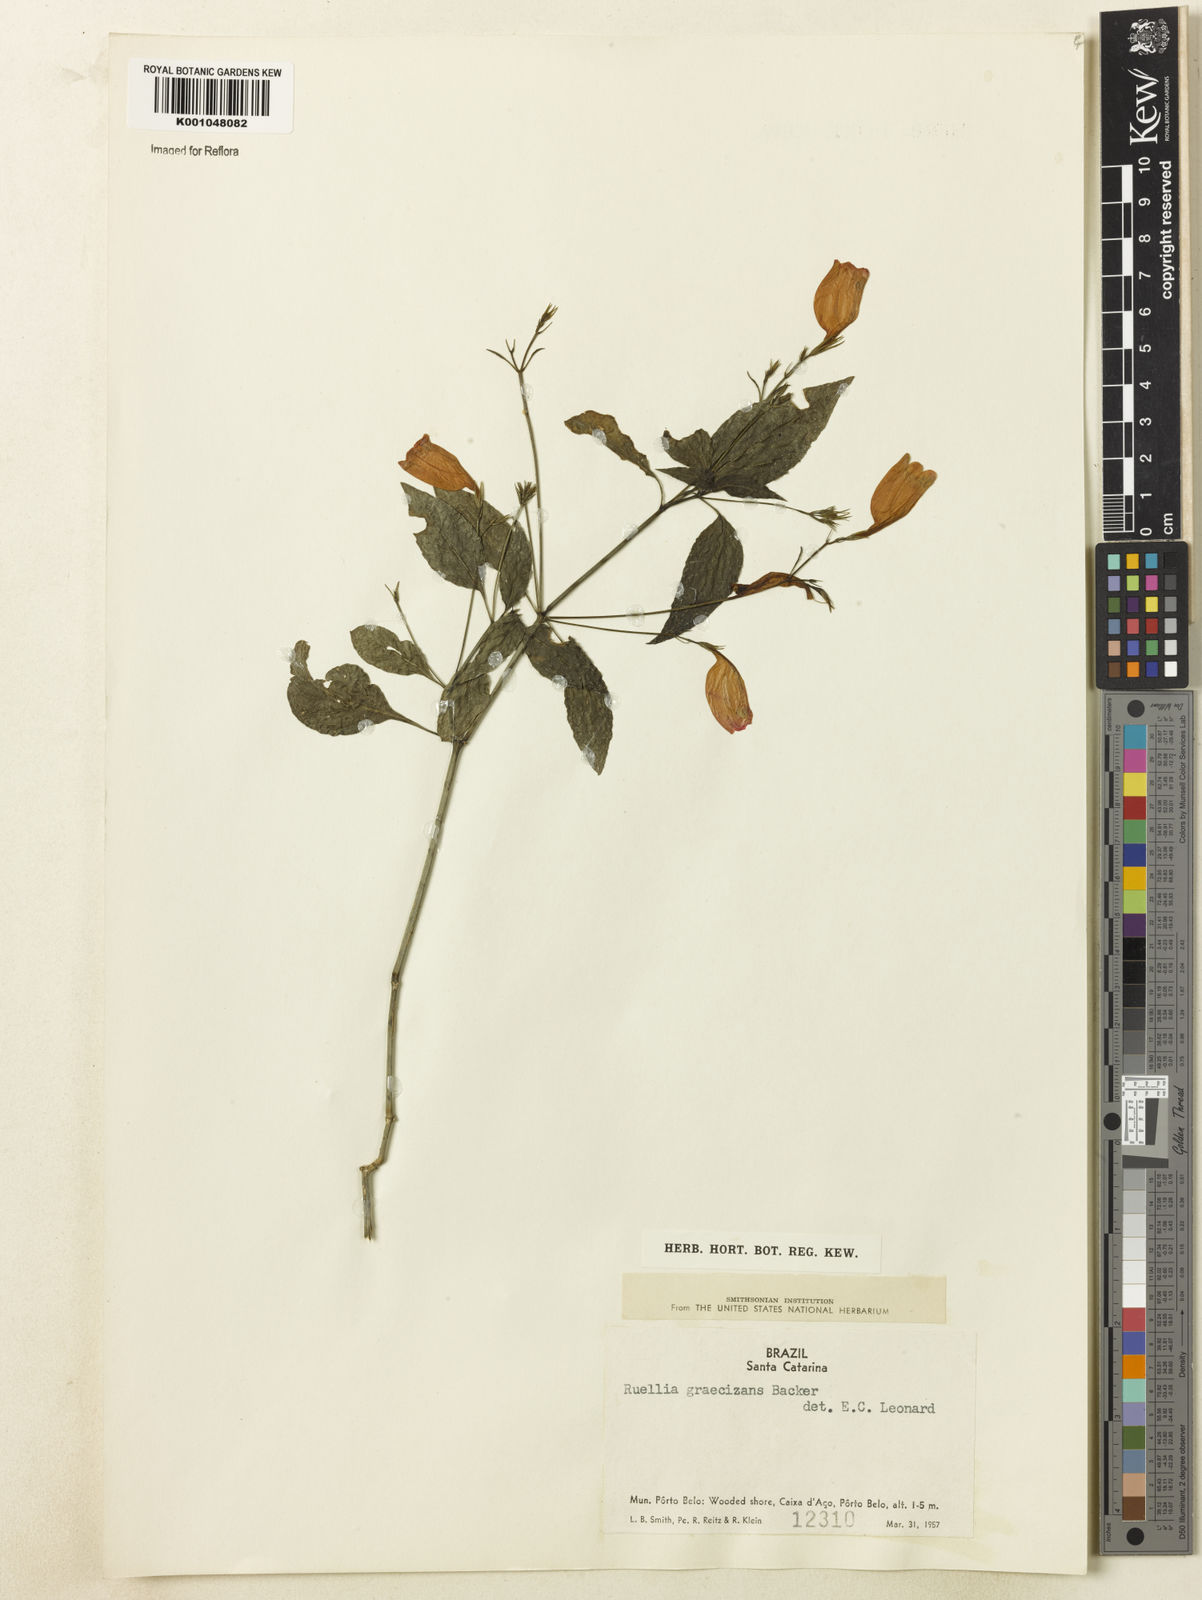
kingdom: Plantae
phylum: Tracheophyta
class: Magnoliopsida
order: Lamiales
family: Acanthaceae
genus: Ruellia
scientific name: Ruellia brevifolia
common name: Tropical wild petunia
